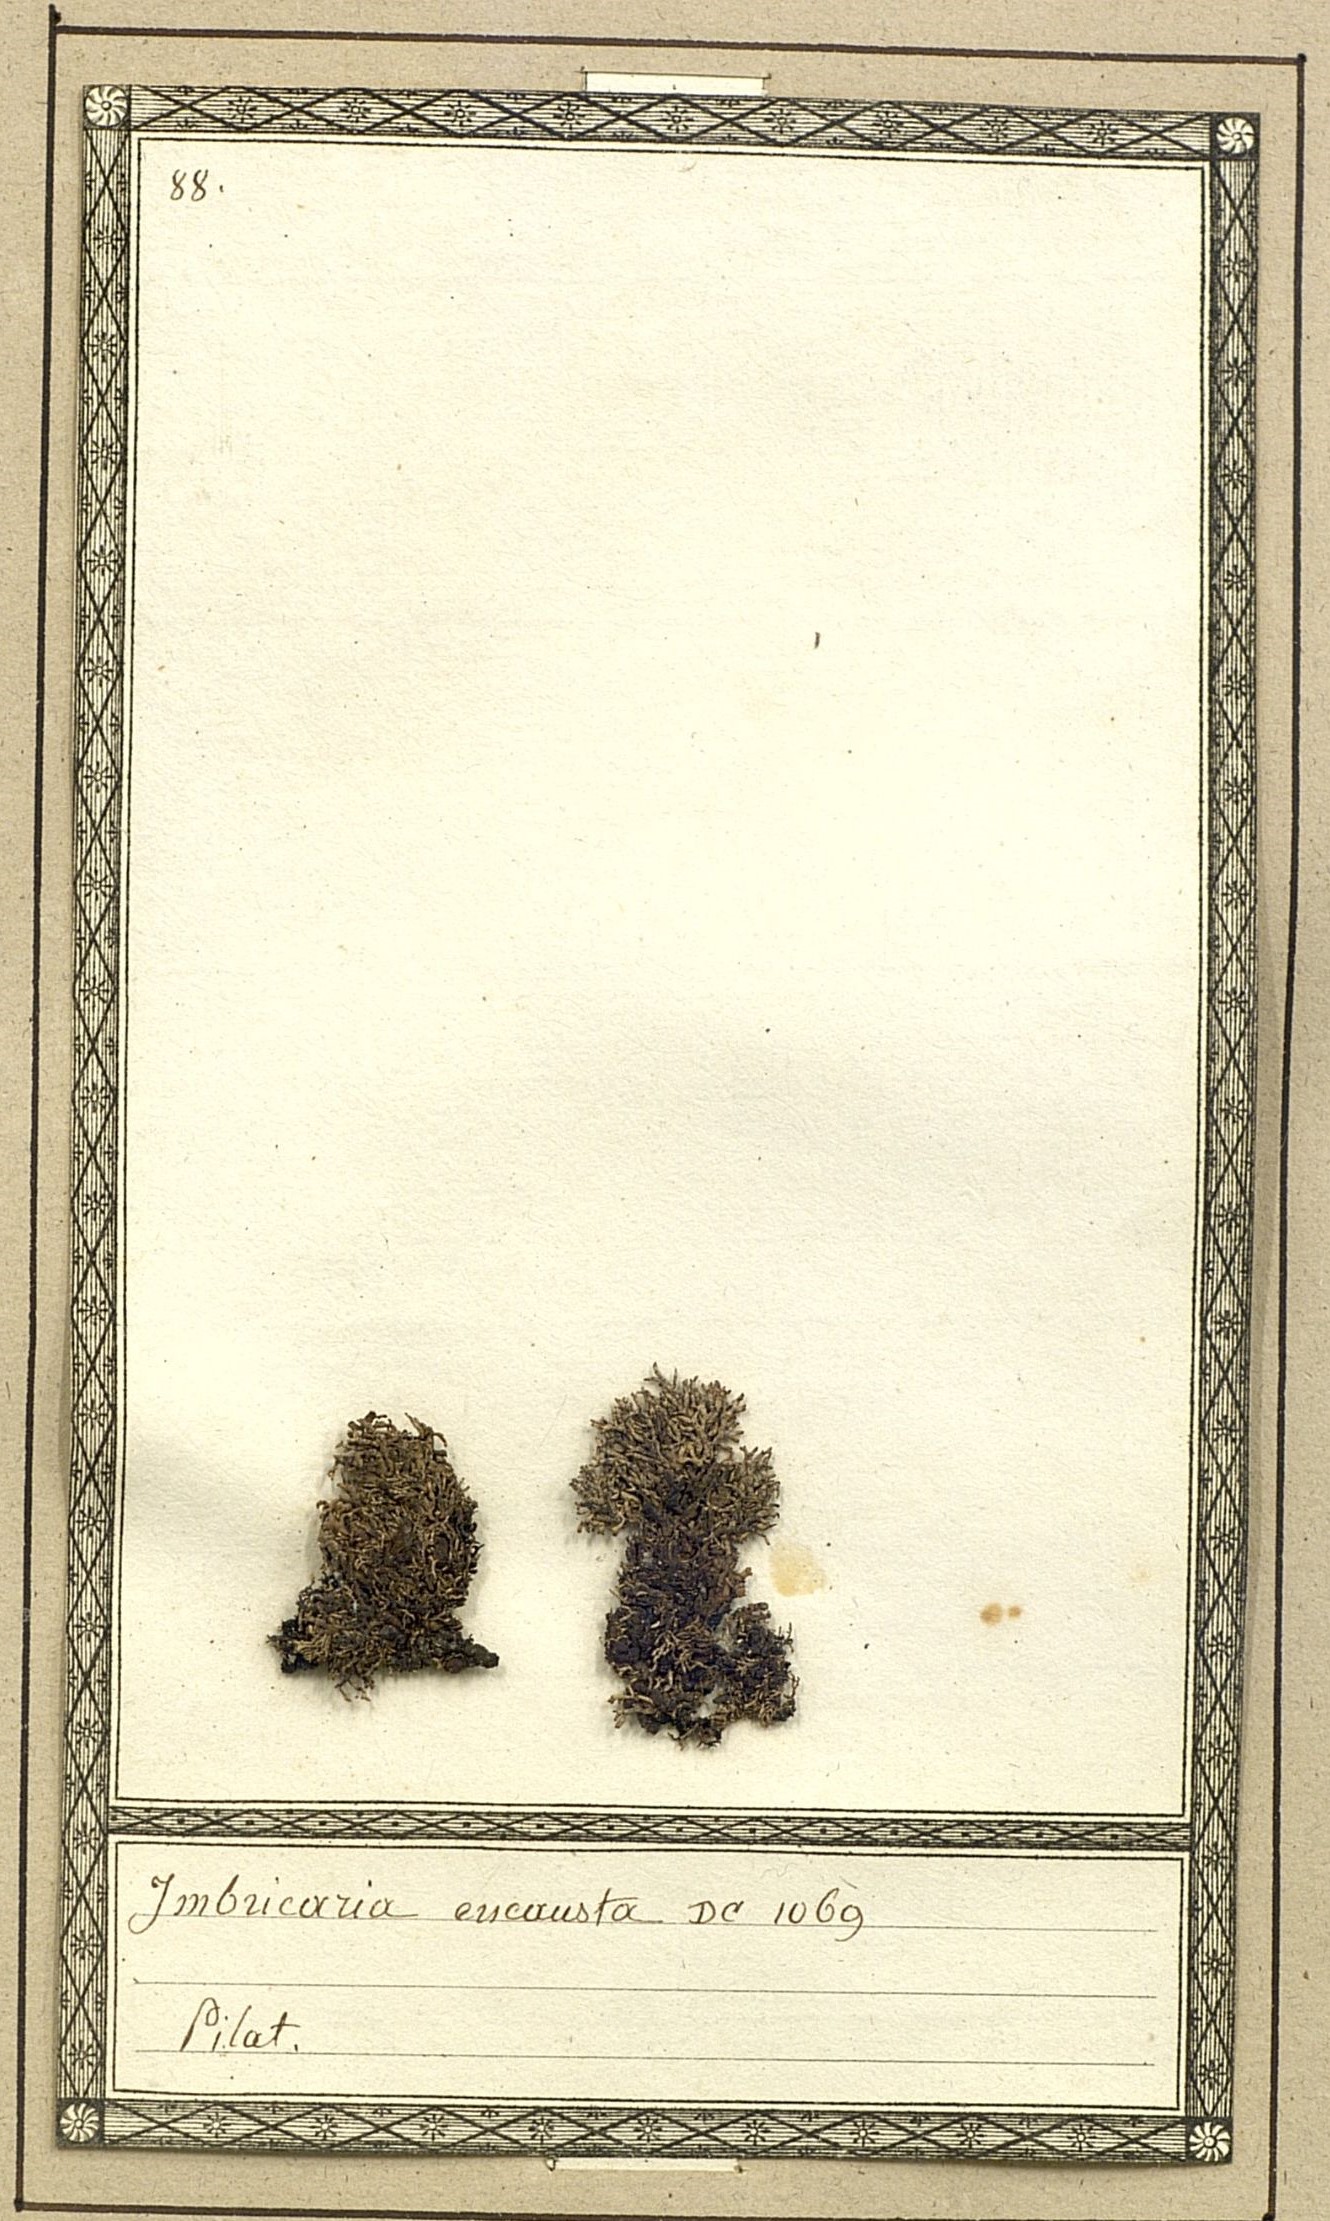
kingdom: Fungi
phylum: Ascomycota
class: Lecanoromycetes
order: Lecanorales
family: Parmeliaceae
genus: Brodoa
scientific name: Brodoa intestiniformis
